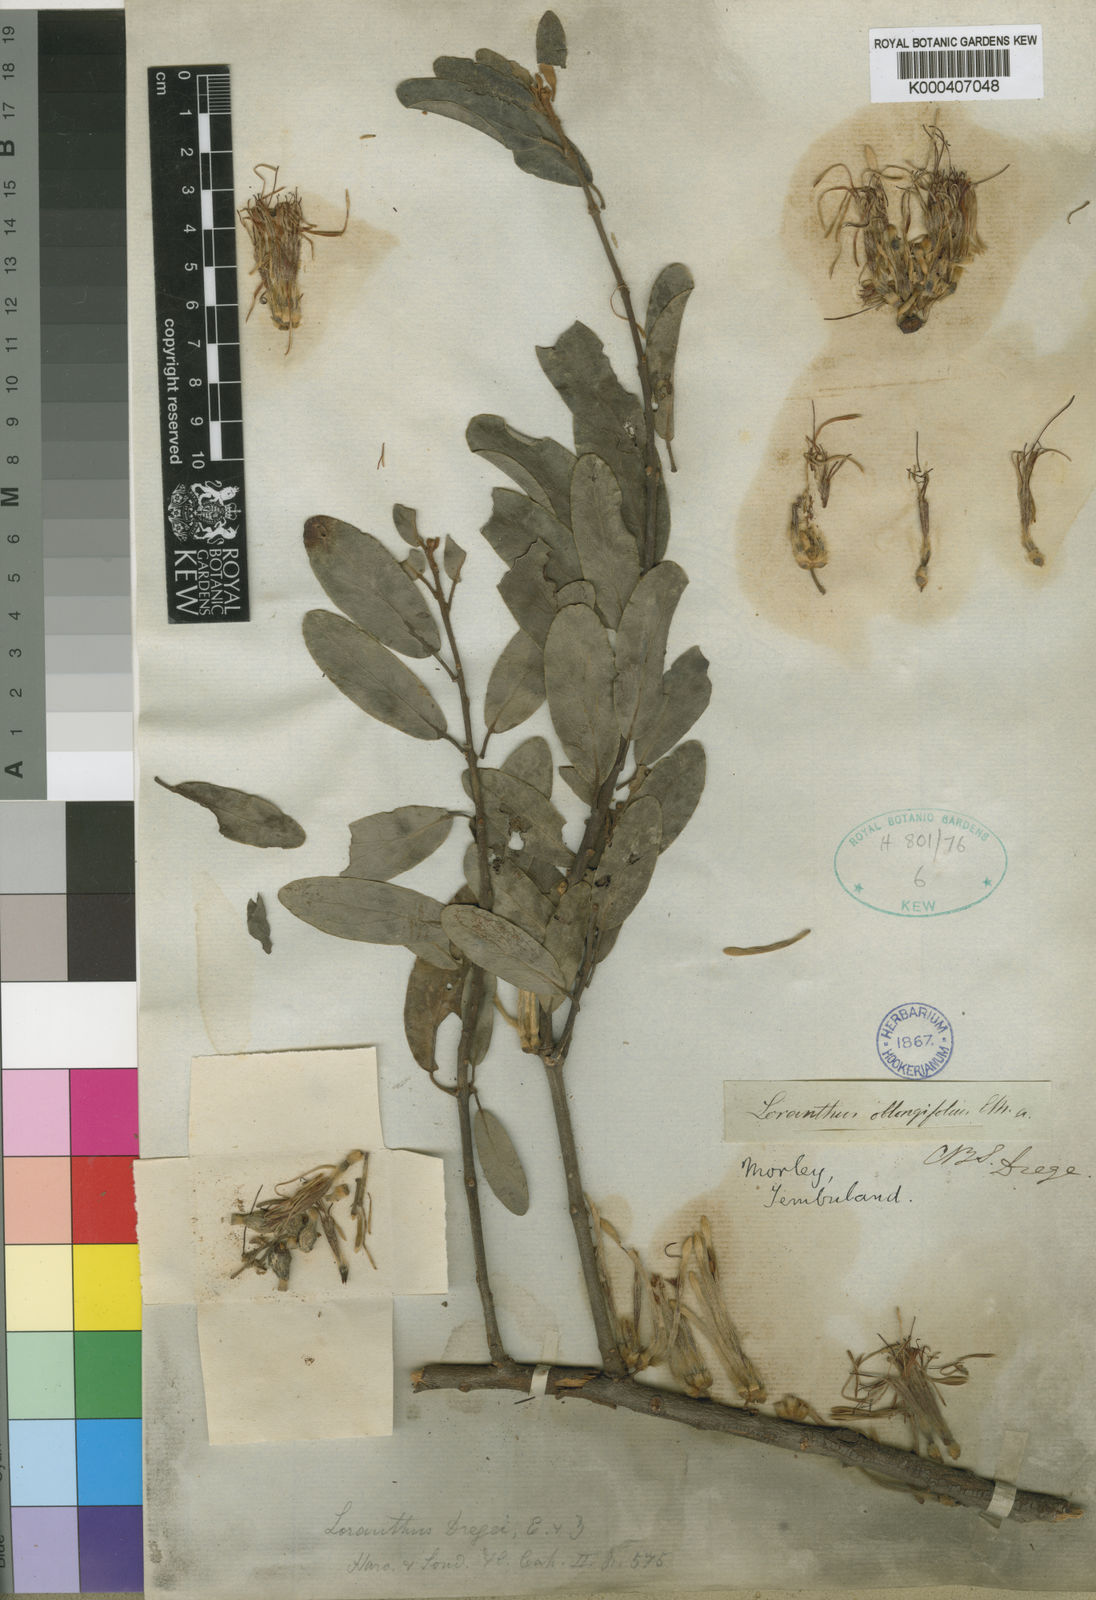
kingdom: Plantae
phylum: Tracheophyta
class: Magnoliopsida
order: Santalales
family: Loranthaceae
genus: Erianthemum
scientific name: Erianthemum dregei
